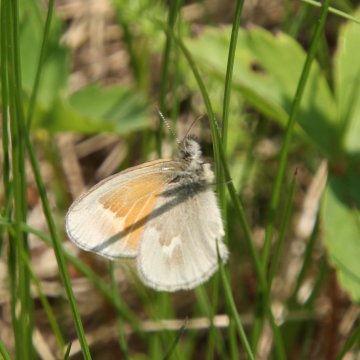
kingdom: Animalia
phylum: Arthropoda
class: Insecta
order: Lepidoptera
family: Nymphalidae
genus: Coenonympha
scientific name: Coenonympha tullia
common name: Large Heath
